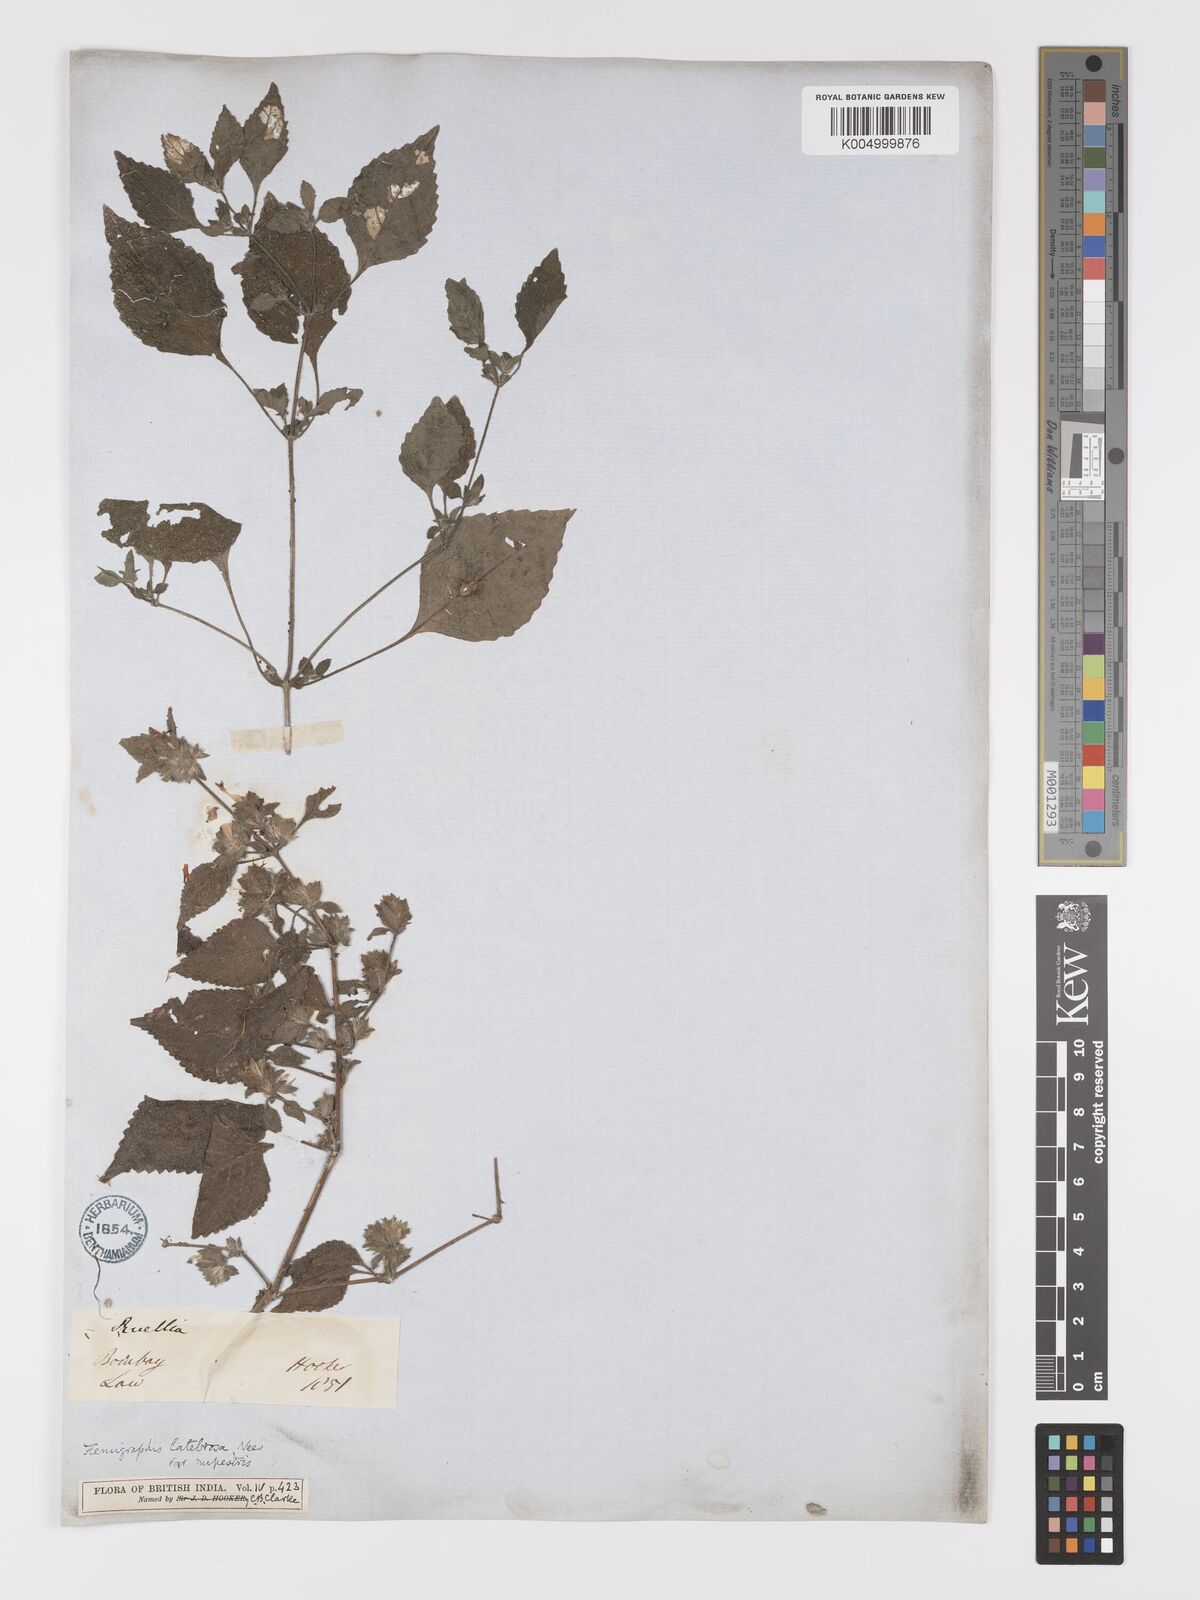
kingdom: Plantae
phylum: Tracheophyta
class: Magnoliopsida
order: Lamiales
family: Acanthaceae
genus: Strobilanthes
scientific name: Strobilanthes pavala
